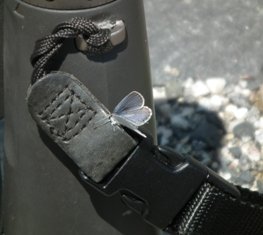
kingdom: Animalia
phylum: Arthropoda
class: Insecta
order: Lepidoptera
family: Lycaenidae
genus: Elkalyce
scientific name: Elkalyce amyntula
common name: Western Tailed-Blue
